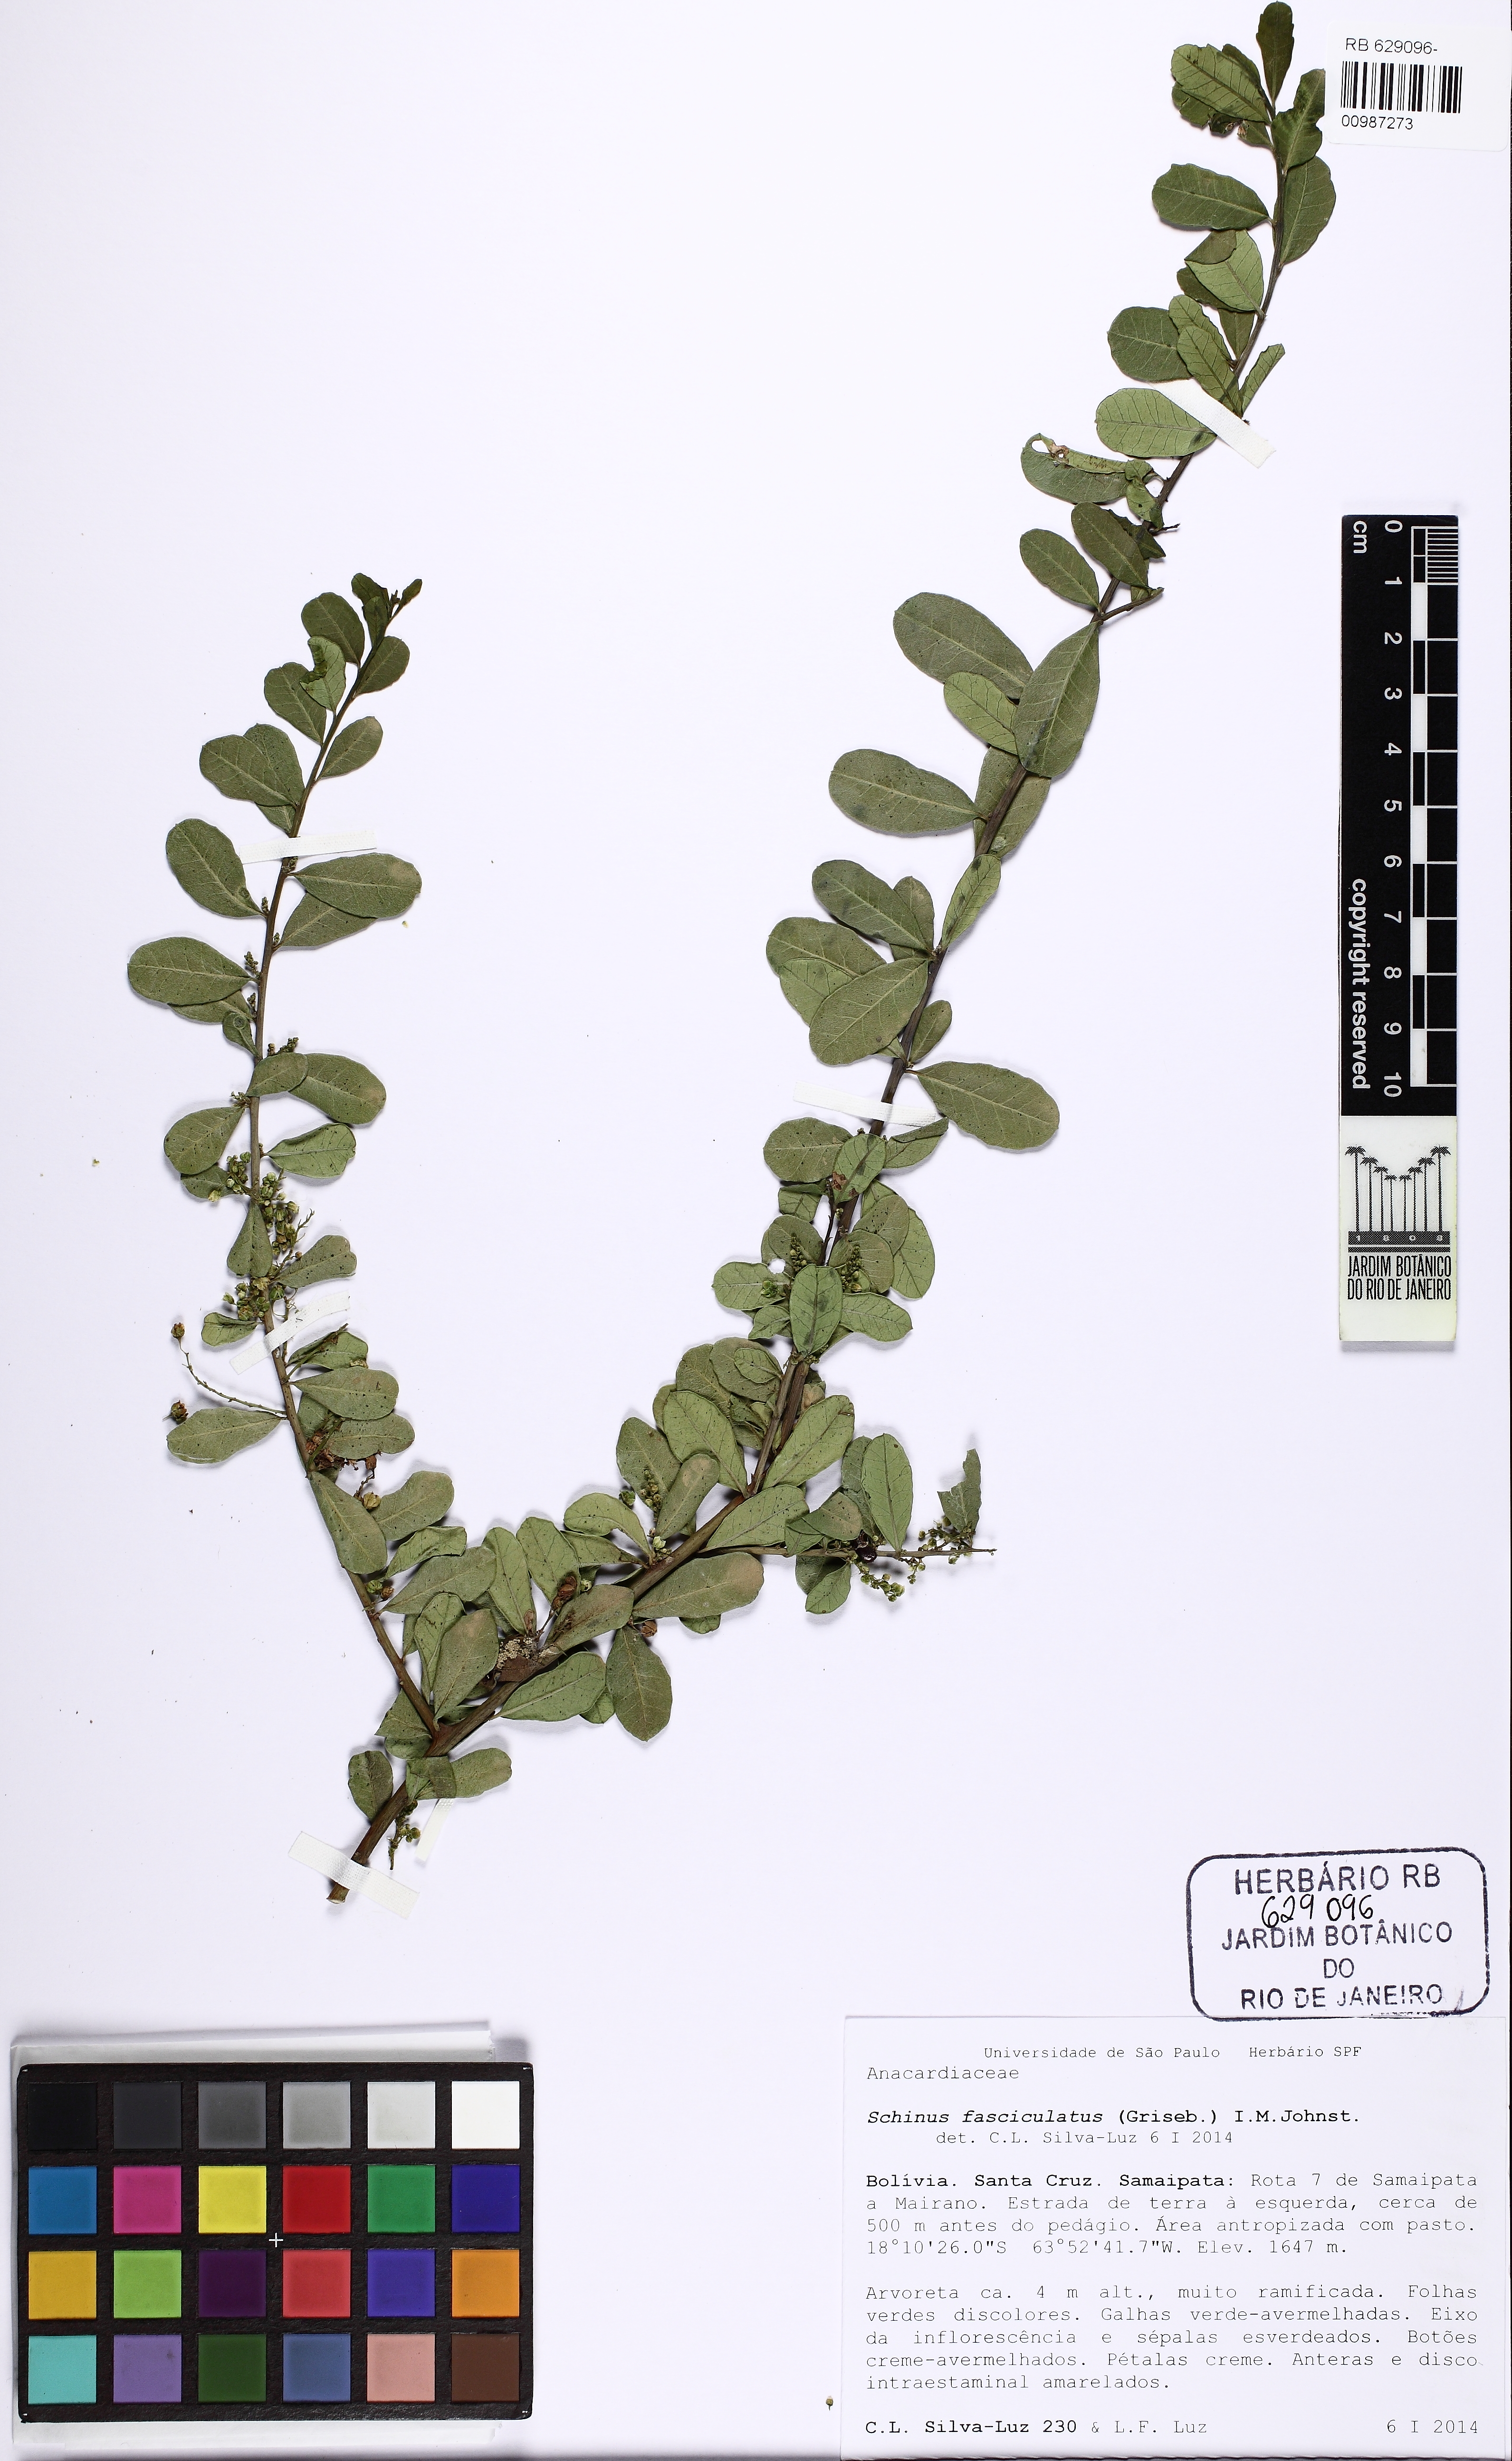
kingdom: Plantae
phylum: Tracheophyta
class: Magnoliopsida
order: Sapindales
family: Anacardiaceae
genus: Schinus
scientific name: Schinus fasciculata
